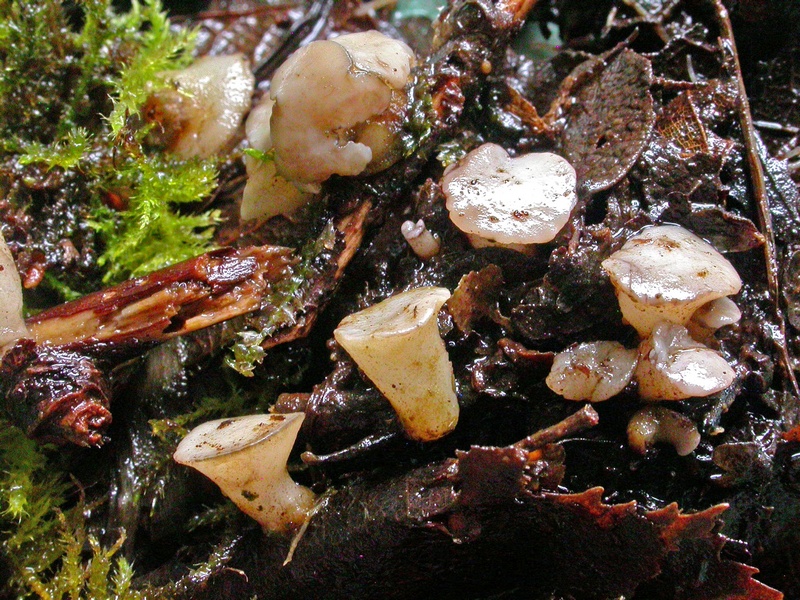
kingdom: Fungi
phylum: Ascomycota
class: Leotiomycetes
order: Helotiales
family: Tricladiaceae
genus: Cudoniella
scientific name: Cudoniella tenuispora
